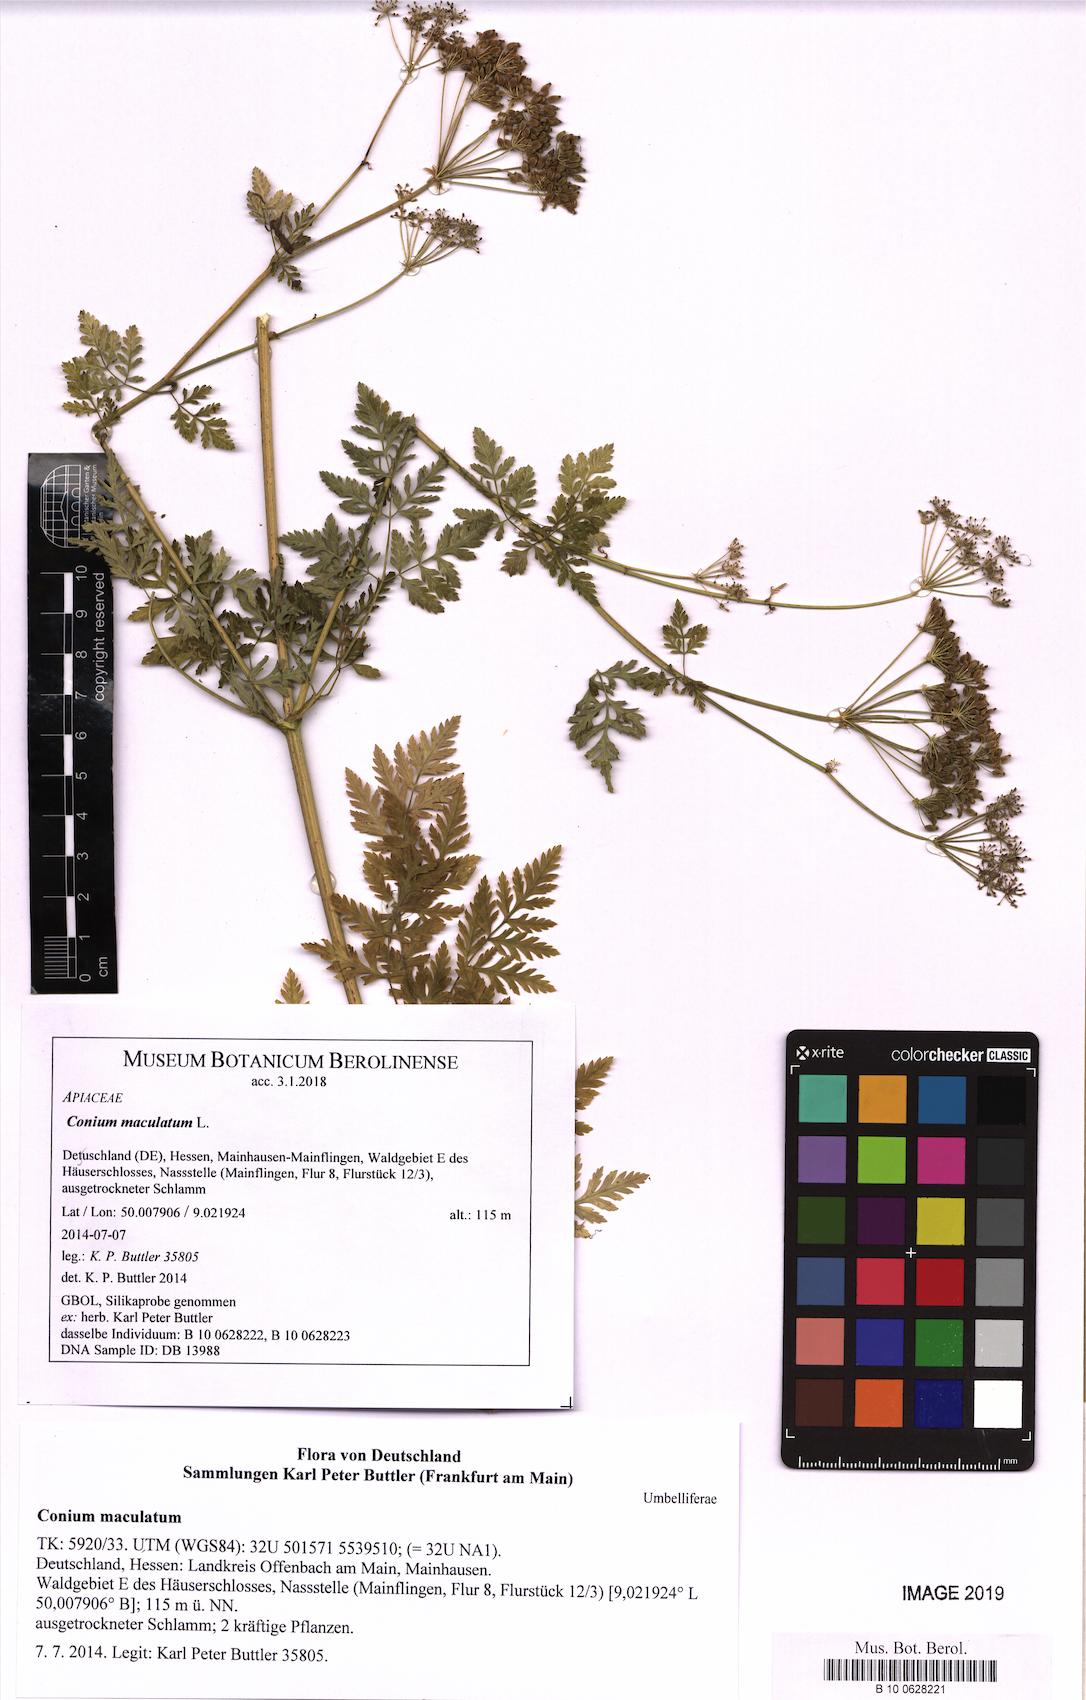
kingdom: Plantae
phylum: Tracheophyta
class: Magnoliopsida
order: Apiales
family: Apiaceae
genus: Conium
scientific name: Conium maculatum
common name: Hemlock
